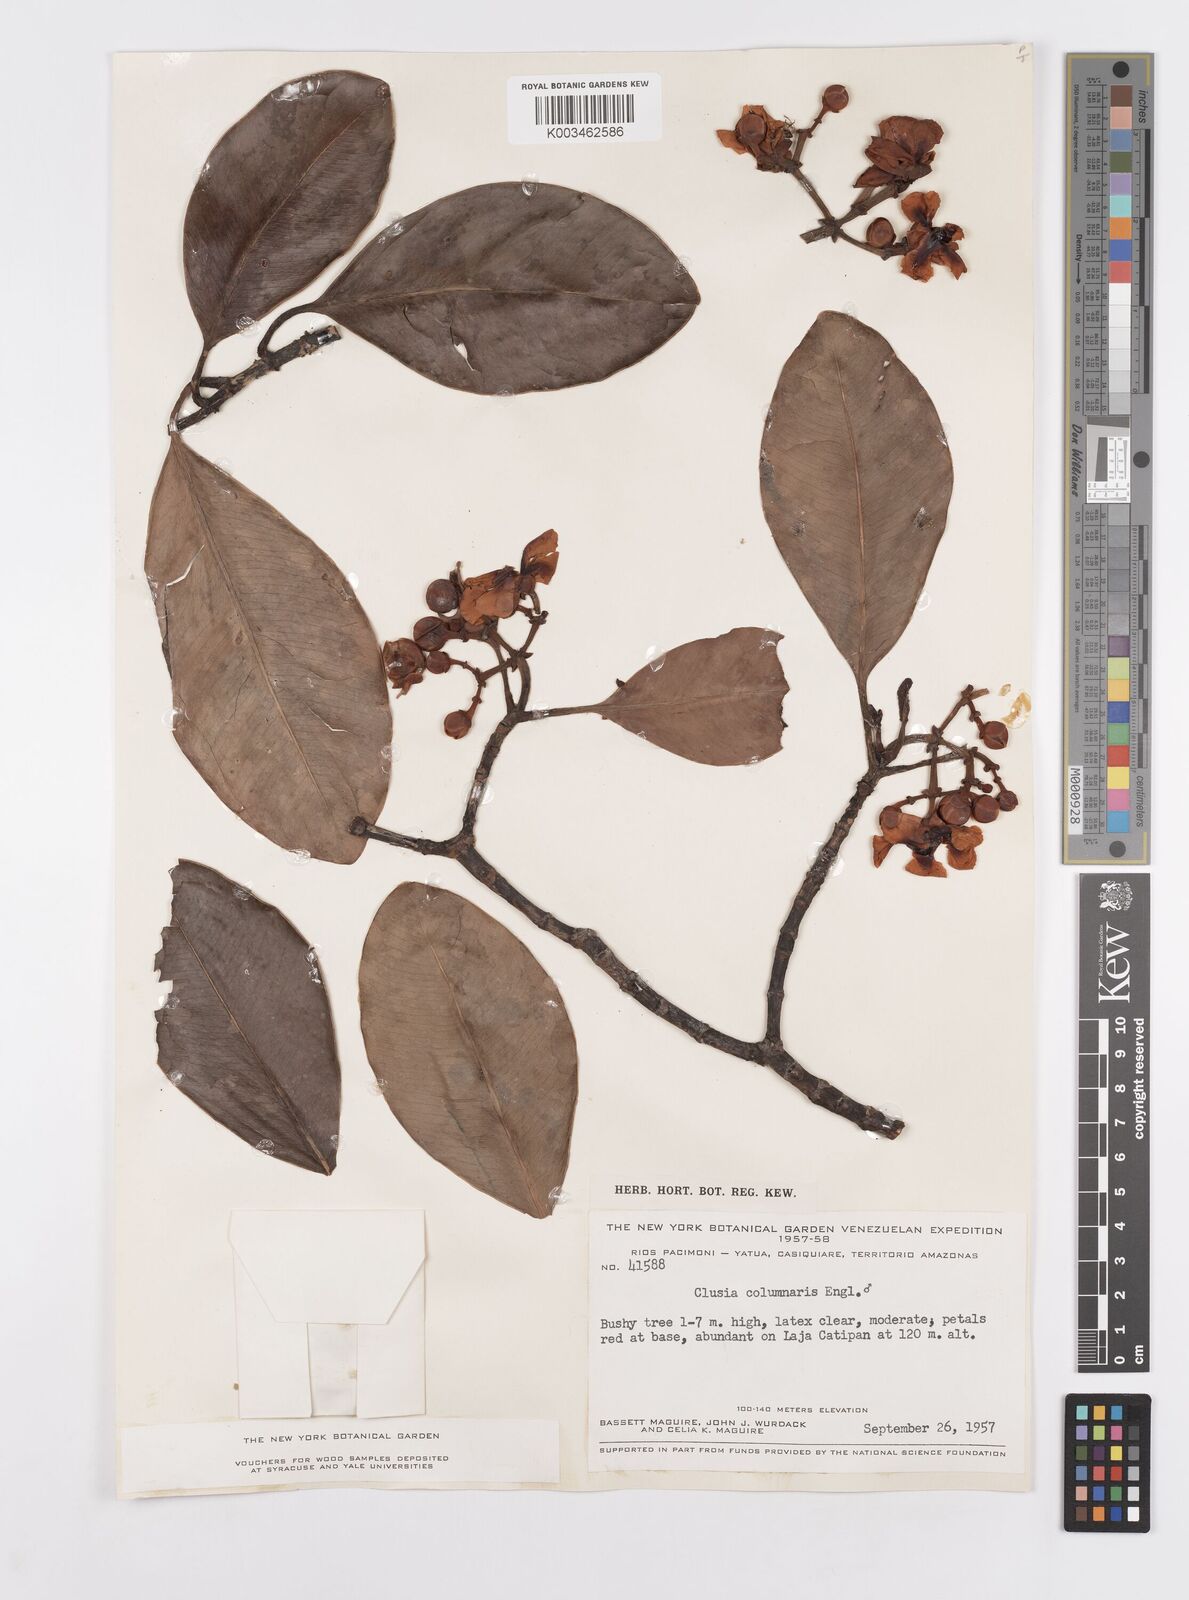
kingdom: Plantae
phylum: Tracheophyta
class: Magnoliopsida
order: Malpighiales
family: Clusiaceae
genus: Clusia
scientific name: Clusia columnaris
